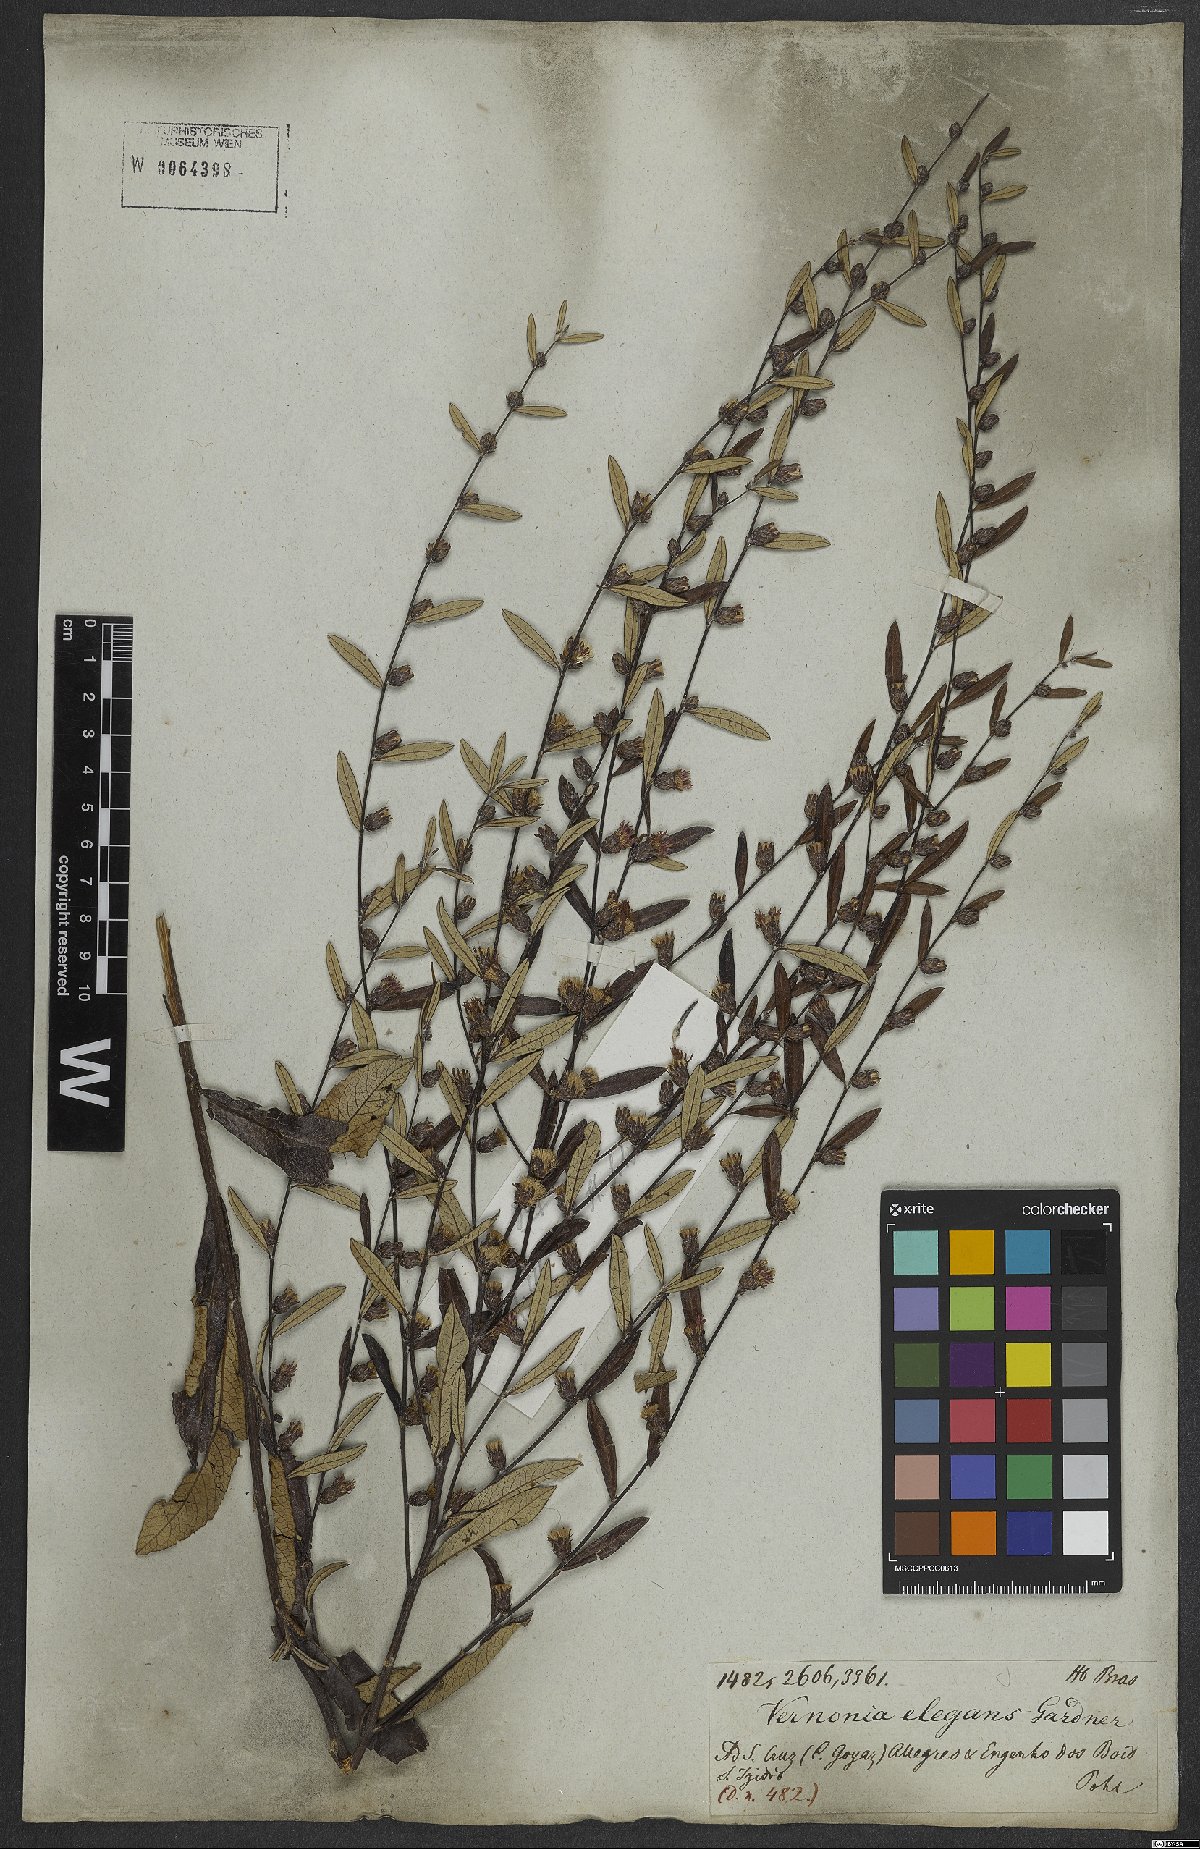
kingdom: Plantae
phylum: Tracheophyta
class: Magnoliopsida
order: Asterales
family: Asteraceae
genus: Lessingianthus
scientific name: Lessingianthus elegans
